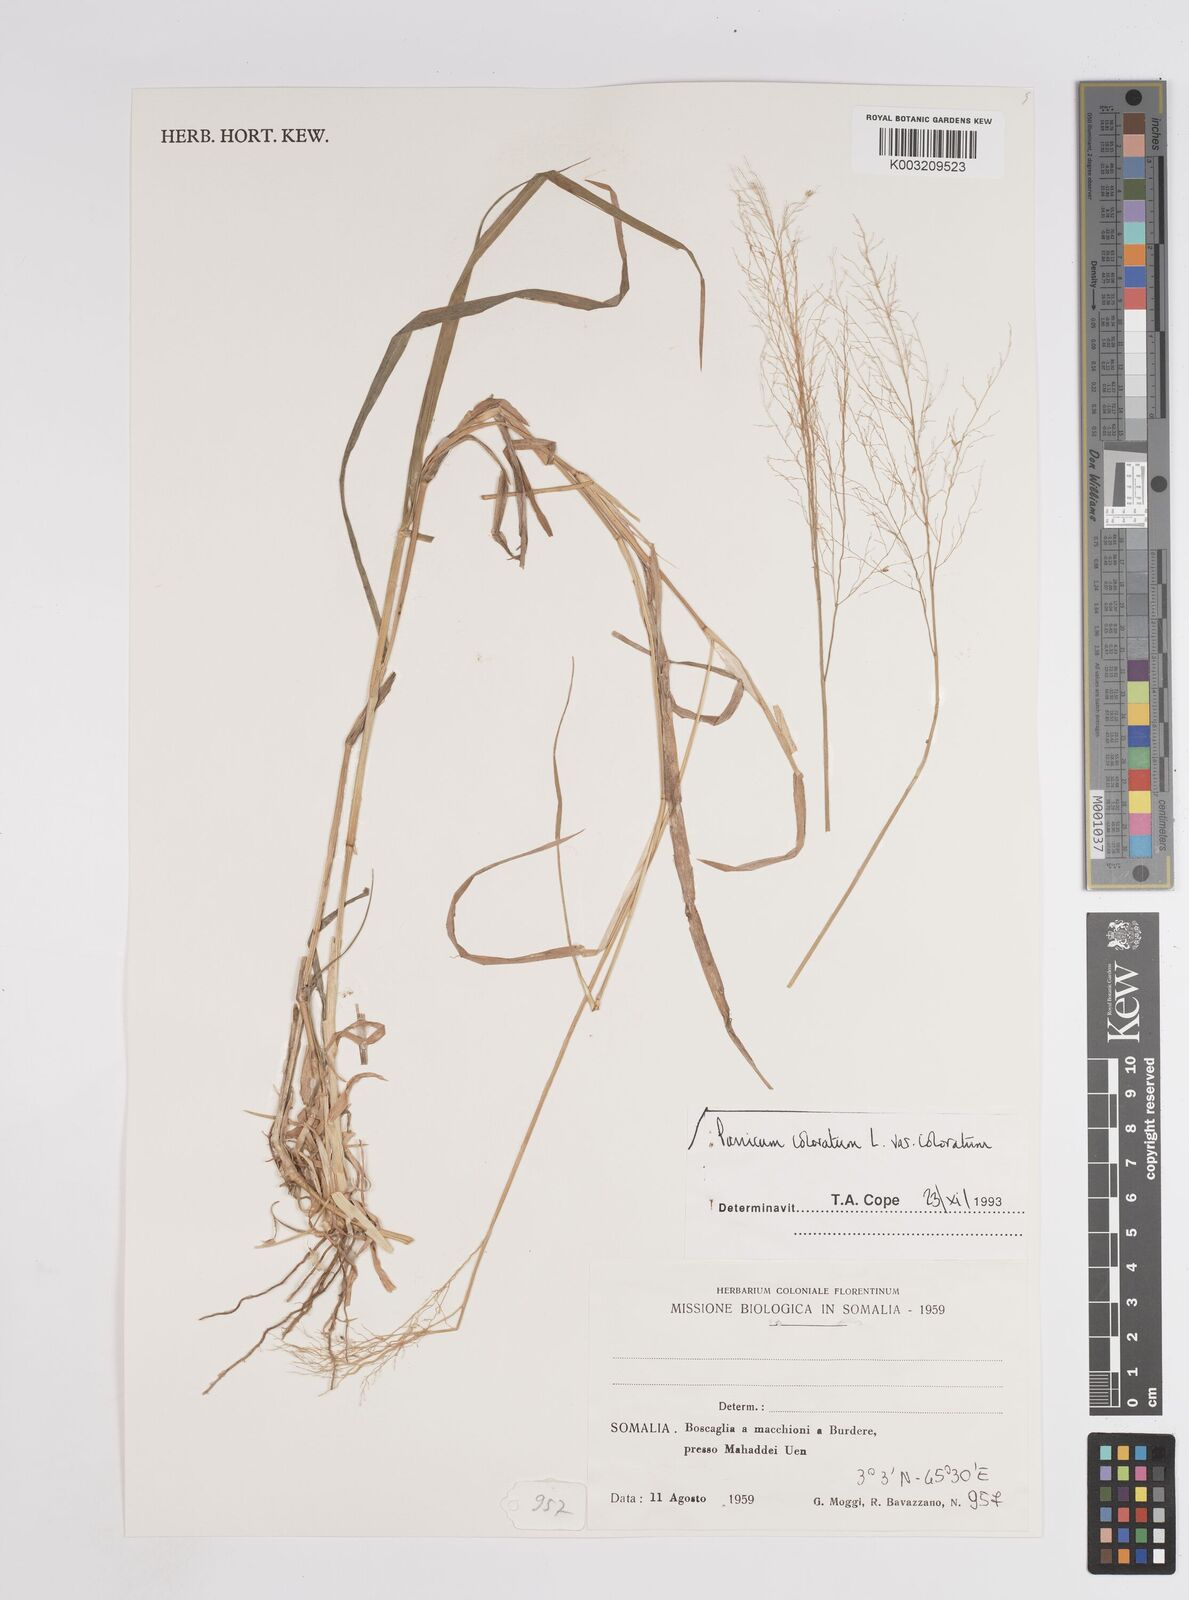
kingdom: Plantae
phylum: Tracheophyta
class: Liliopsida
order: Poales
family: Poaceae
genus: Panicum
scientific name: Panicum coloratum
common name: Kleingrass
